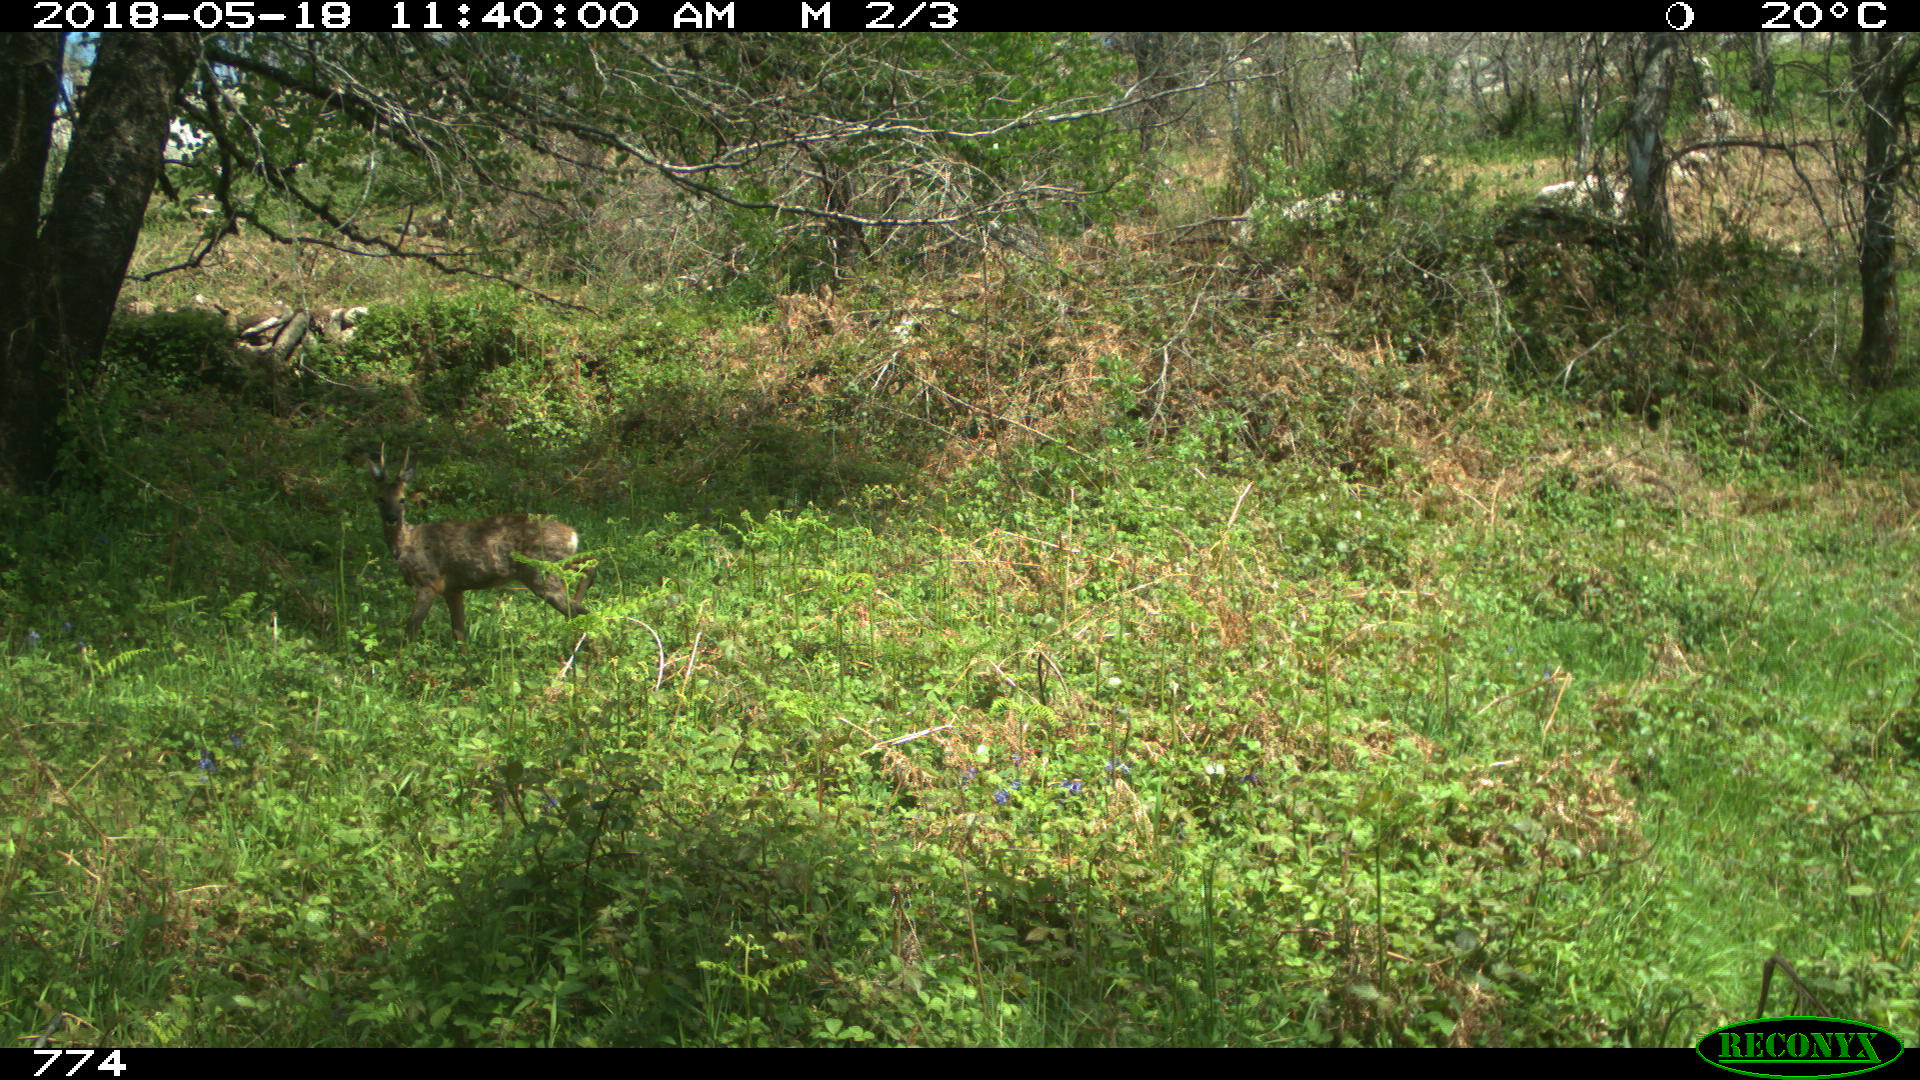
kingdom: Animalia
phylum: Chordata
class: Mammalia
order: Artiodactyla
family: Cervidae
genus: Capreolus
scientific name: Capreolus capreolus
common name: Western roe deer
